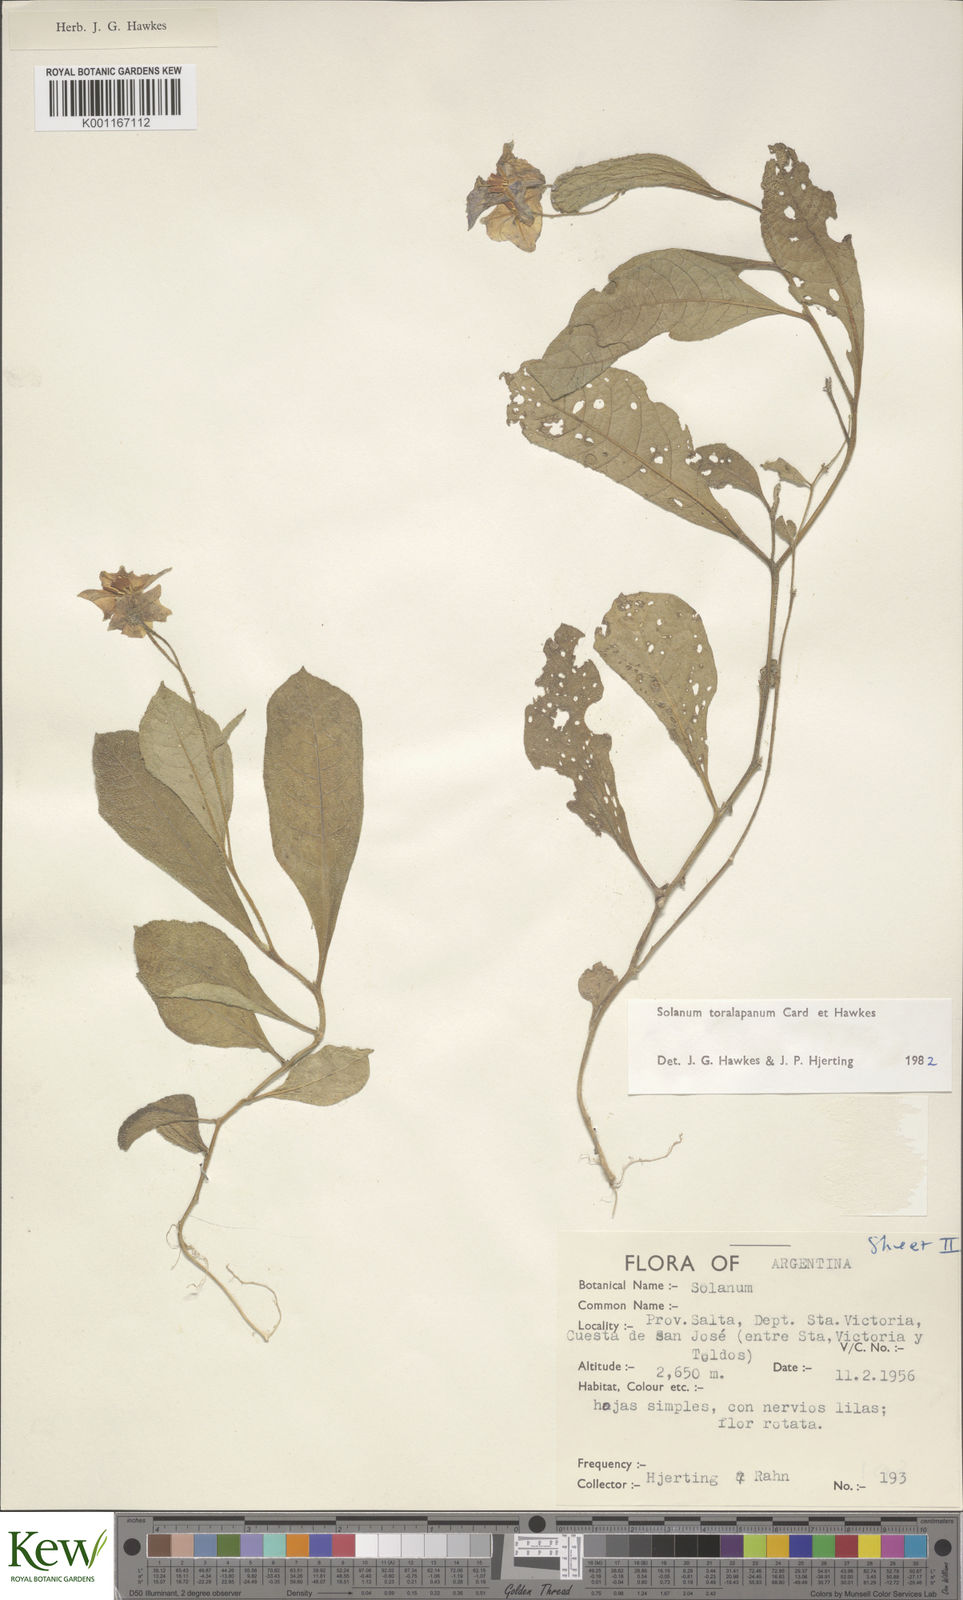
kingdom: Plantae
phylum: Tracheophyta
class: Magnoliopsida
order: Solanales
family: Solanaceae
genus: Solanum
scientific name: Solanum
